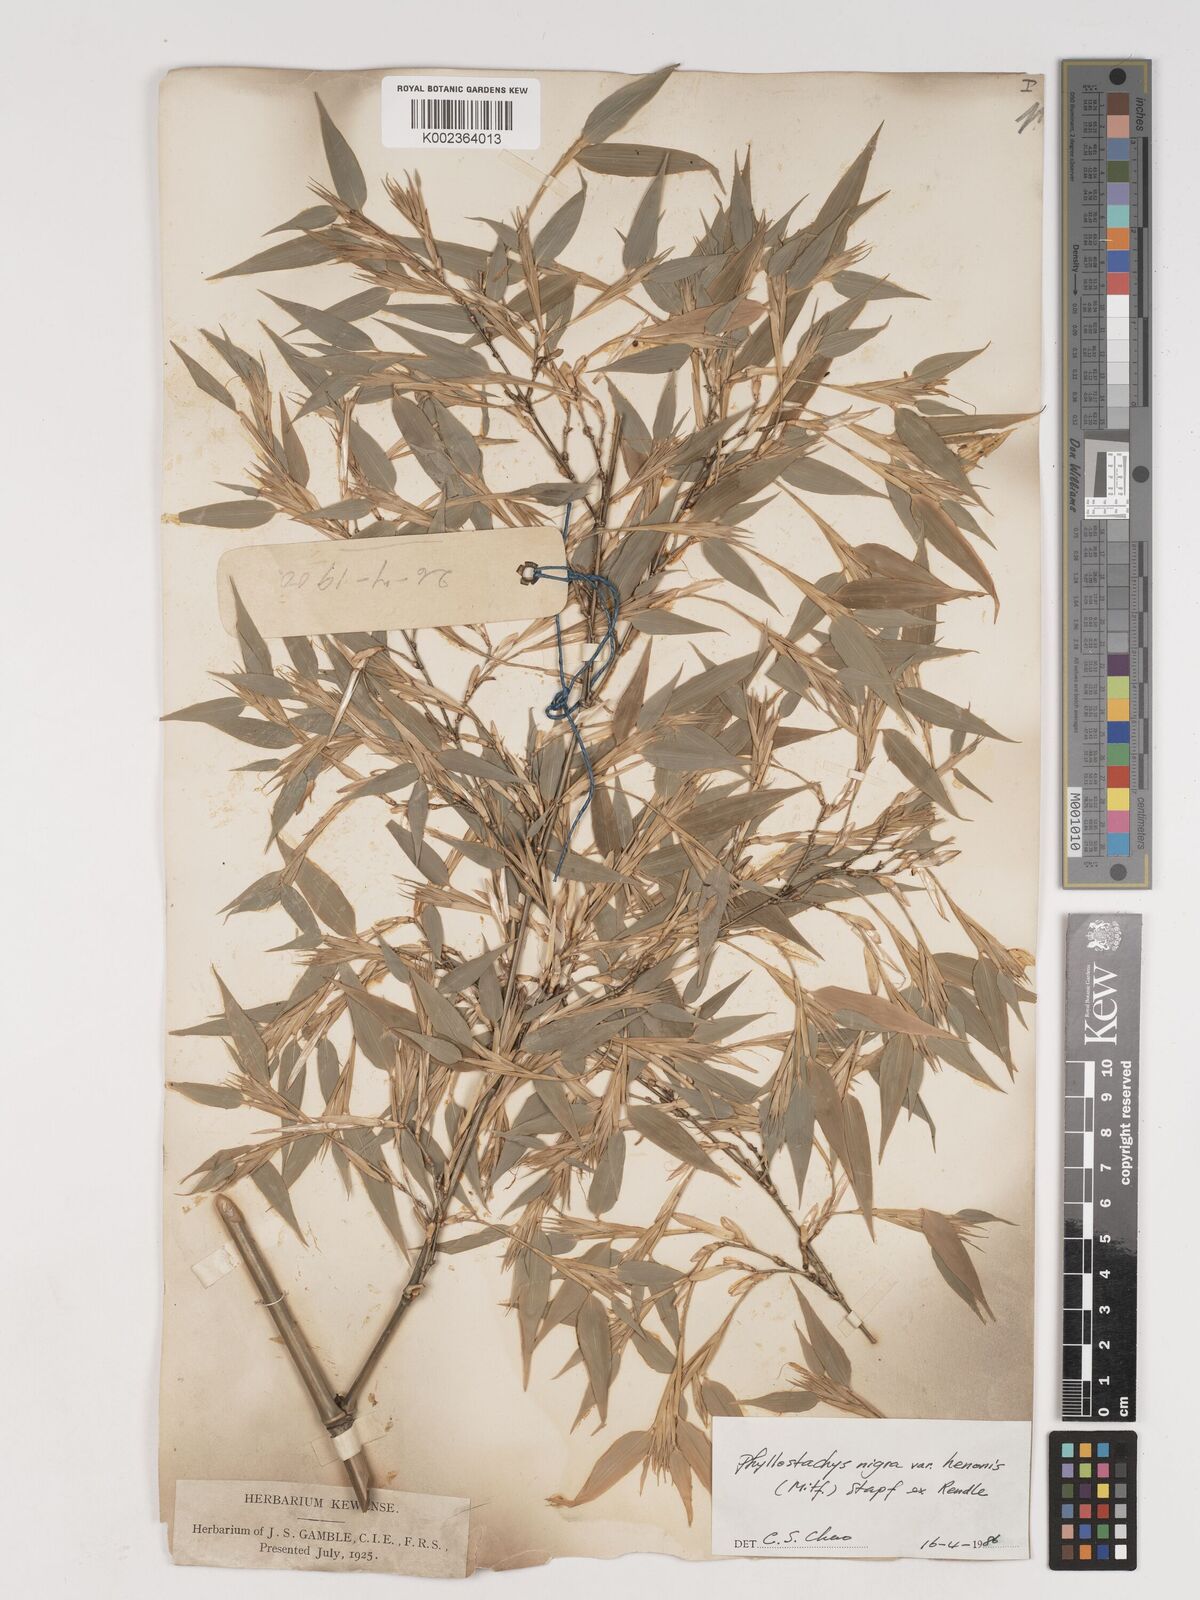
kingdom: Plantae
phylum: Tracheophyta
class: Liliopsida
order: Poales
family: Poaceae
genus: Phyllostachys
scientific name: Phyllostachys nigra
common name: Black bamboo
